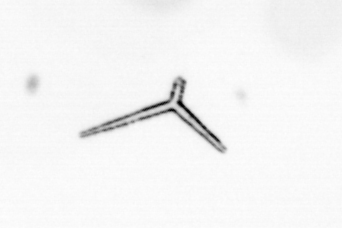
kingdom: Chromista
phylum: Ochrophyta
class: Bacillariophyceae
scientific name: Bacillariophyceae
